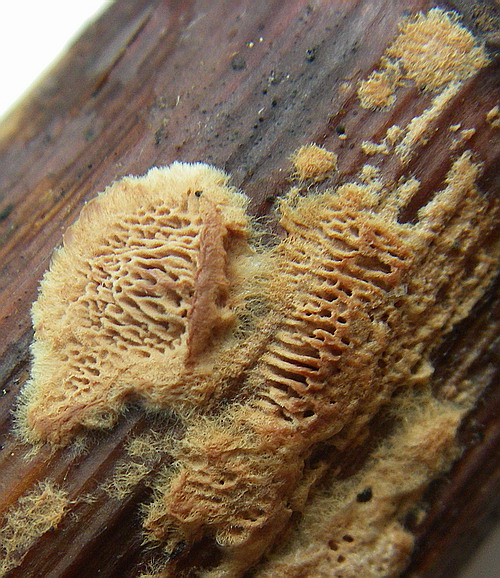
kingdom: Fungi
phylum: Basidiomycota
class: Agaricomycetes
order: Polyporales
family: Phanerochaetaceae
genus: Hapalopilus
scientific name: Hapalopilus eupatorii
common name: urte-okkerporesvamp
